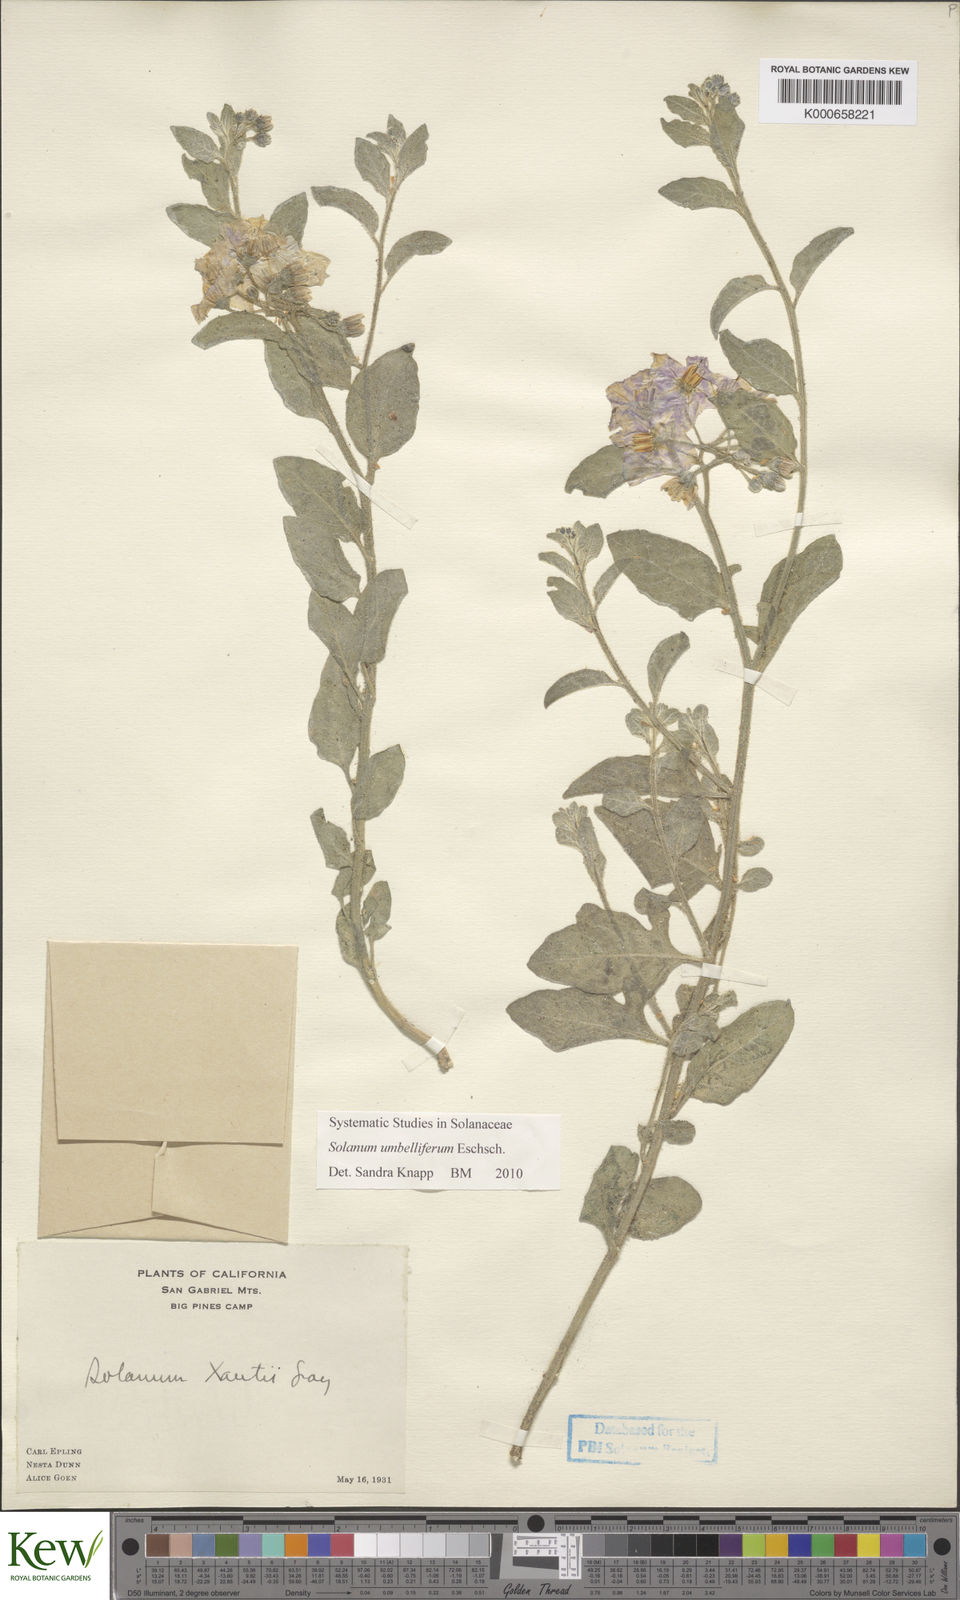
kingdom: Plantae
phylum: Tracheophyta
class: Magnoliopsida
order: Solanales
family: Solanaceae
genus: Solanum
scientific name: Solanum umbelliferum
